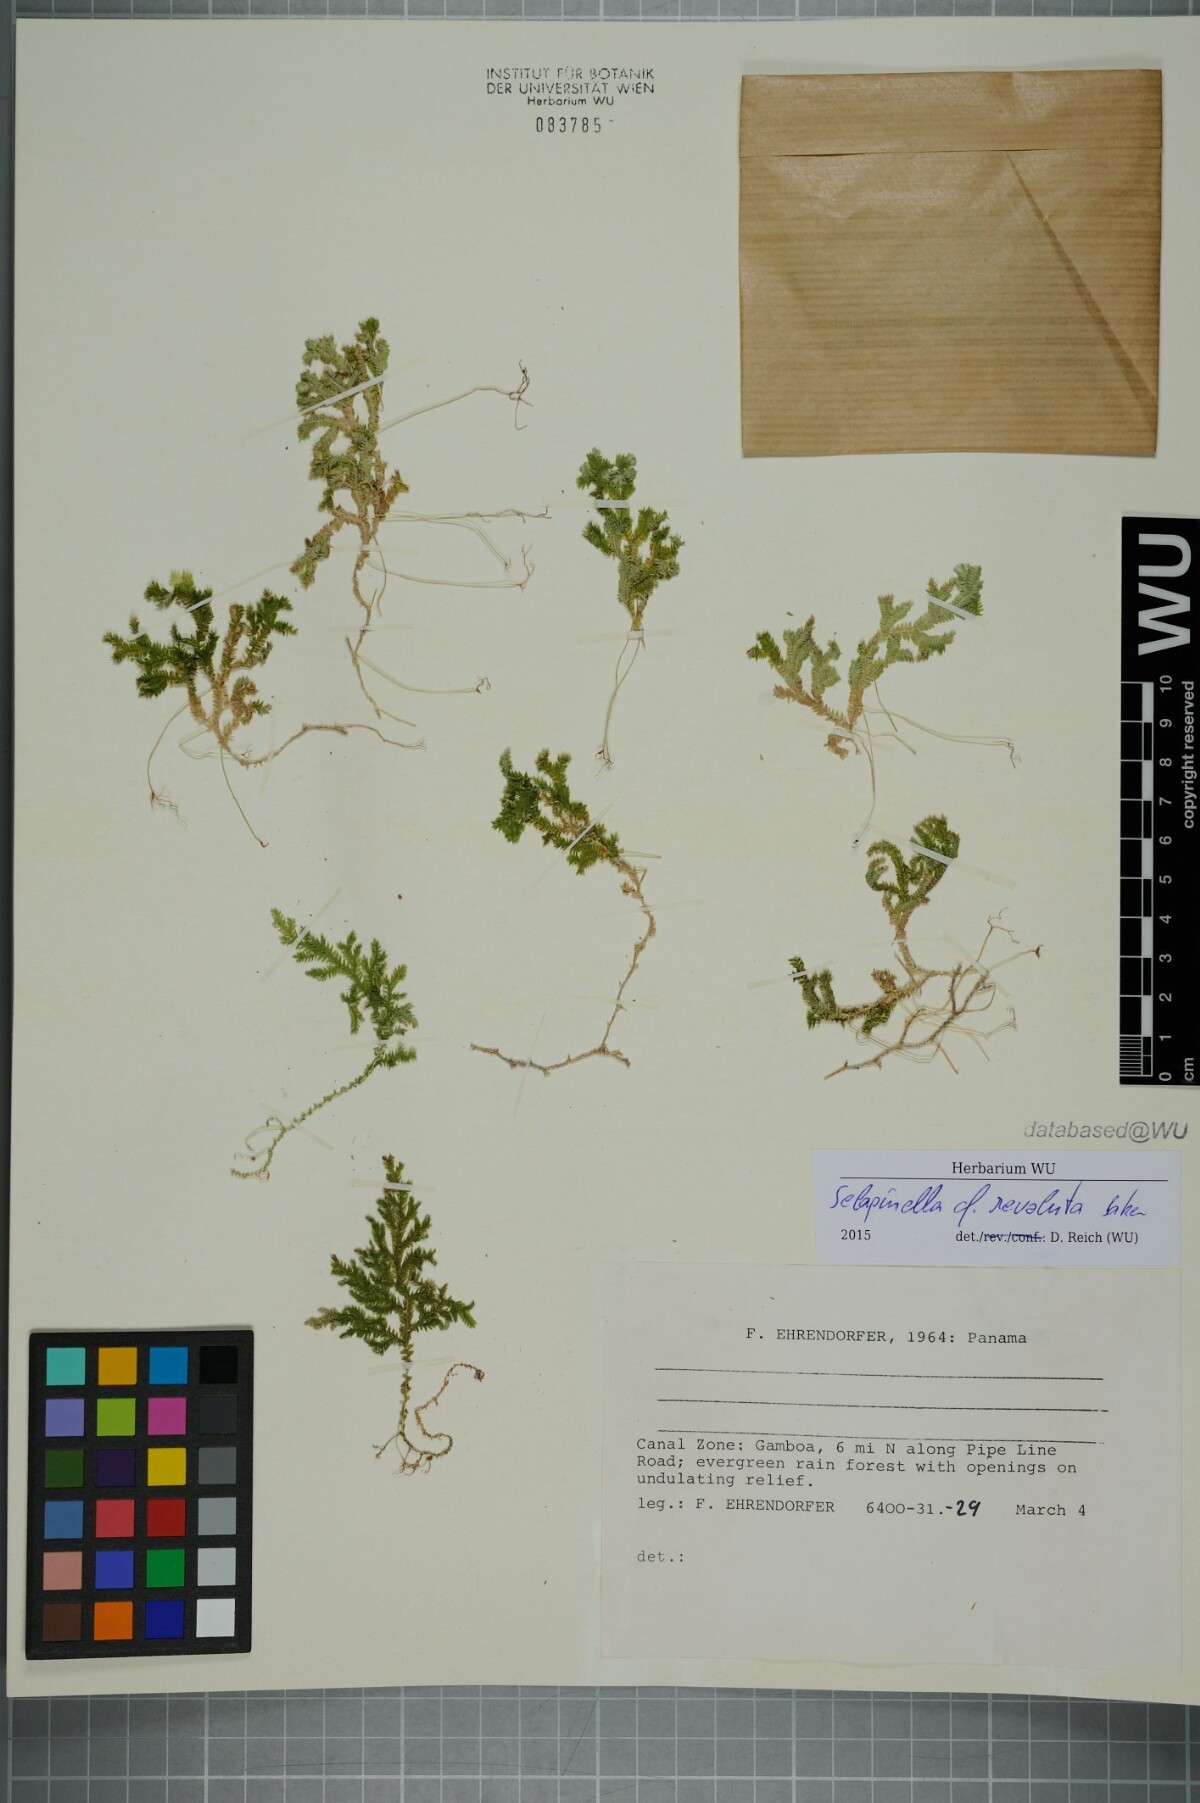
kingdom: Plantae
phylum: Tracheophyta
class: Lycopodiopsida
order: Selaginellales
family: Selaginellaceae
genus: Selaginella
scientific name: Selaginella revoluta
